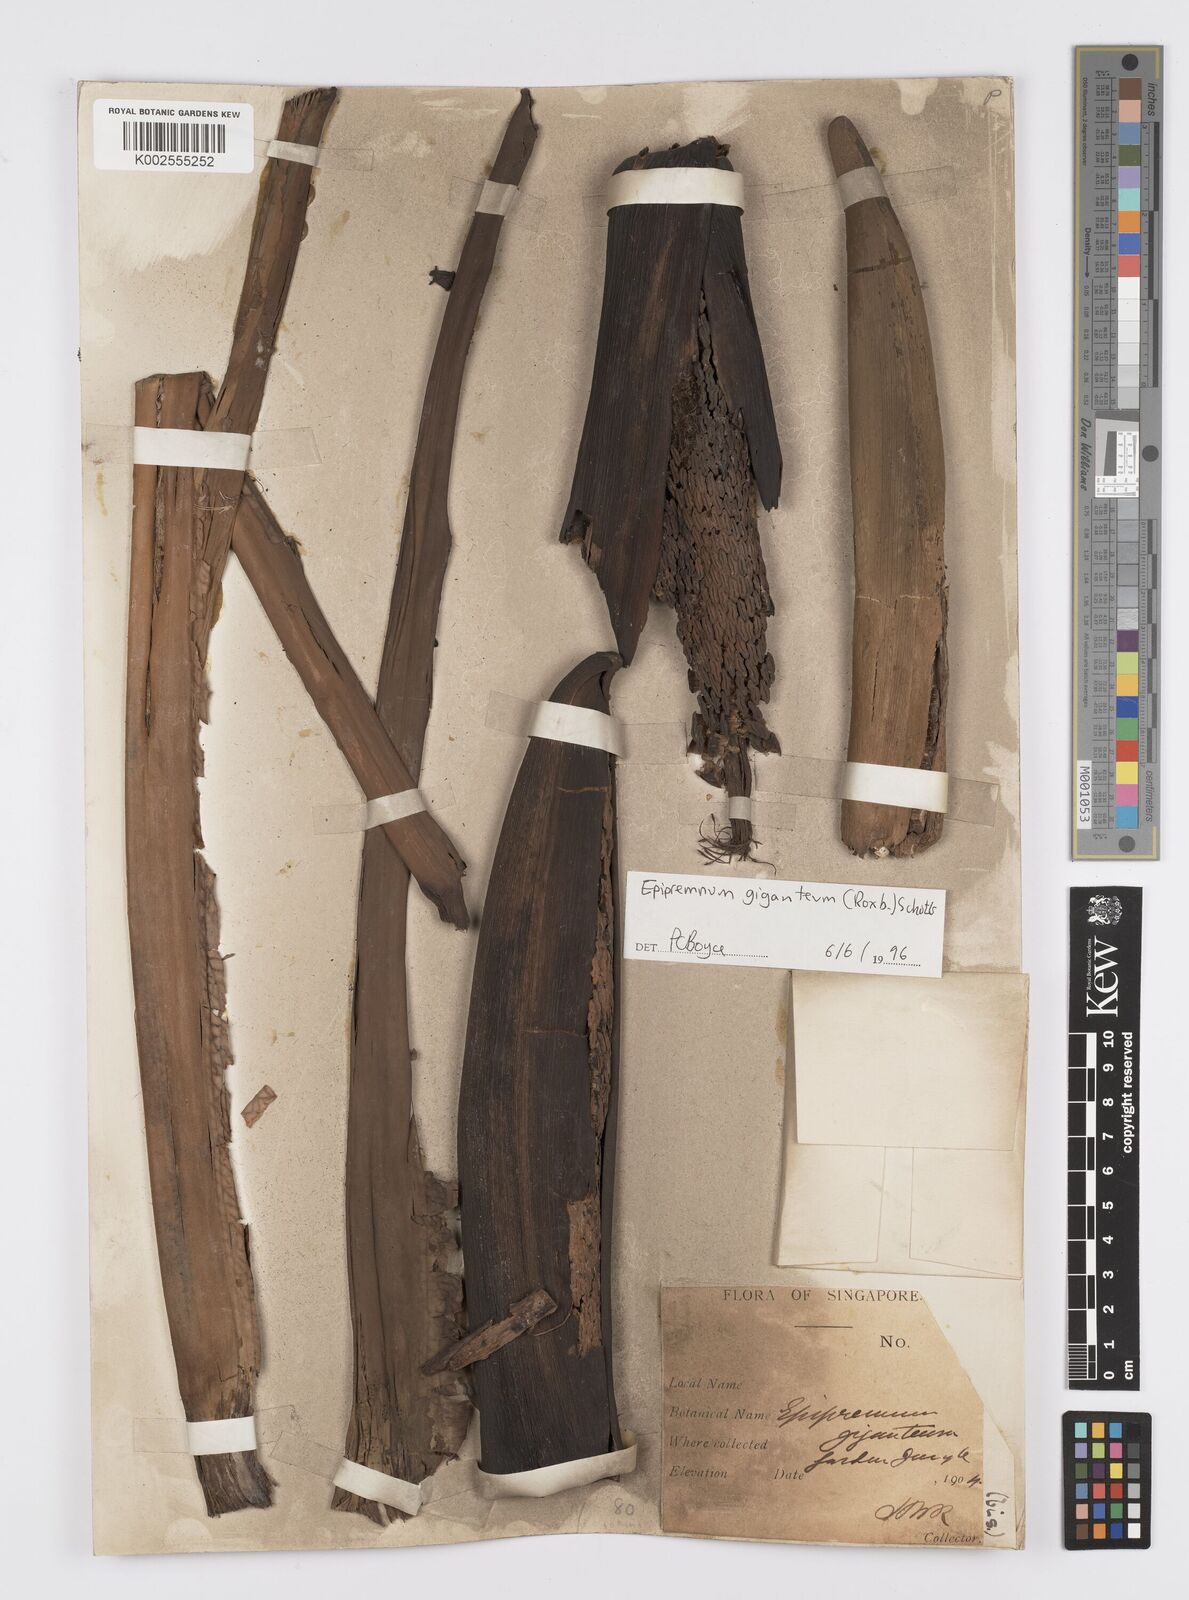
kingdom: Plantae
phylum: Tracheophyta
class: Liliopsida
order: Alismatales
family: Araceae
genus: Epipremnum
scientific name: Epipremnum giganteum
